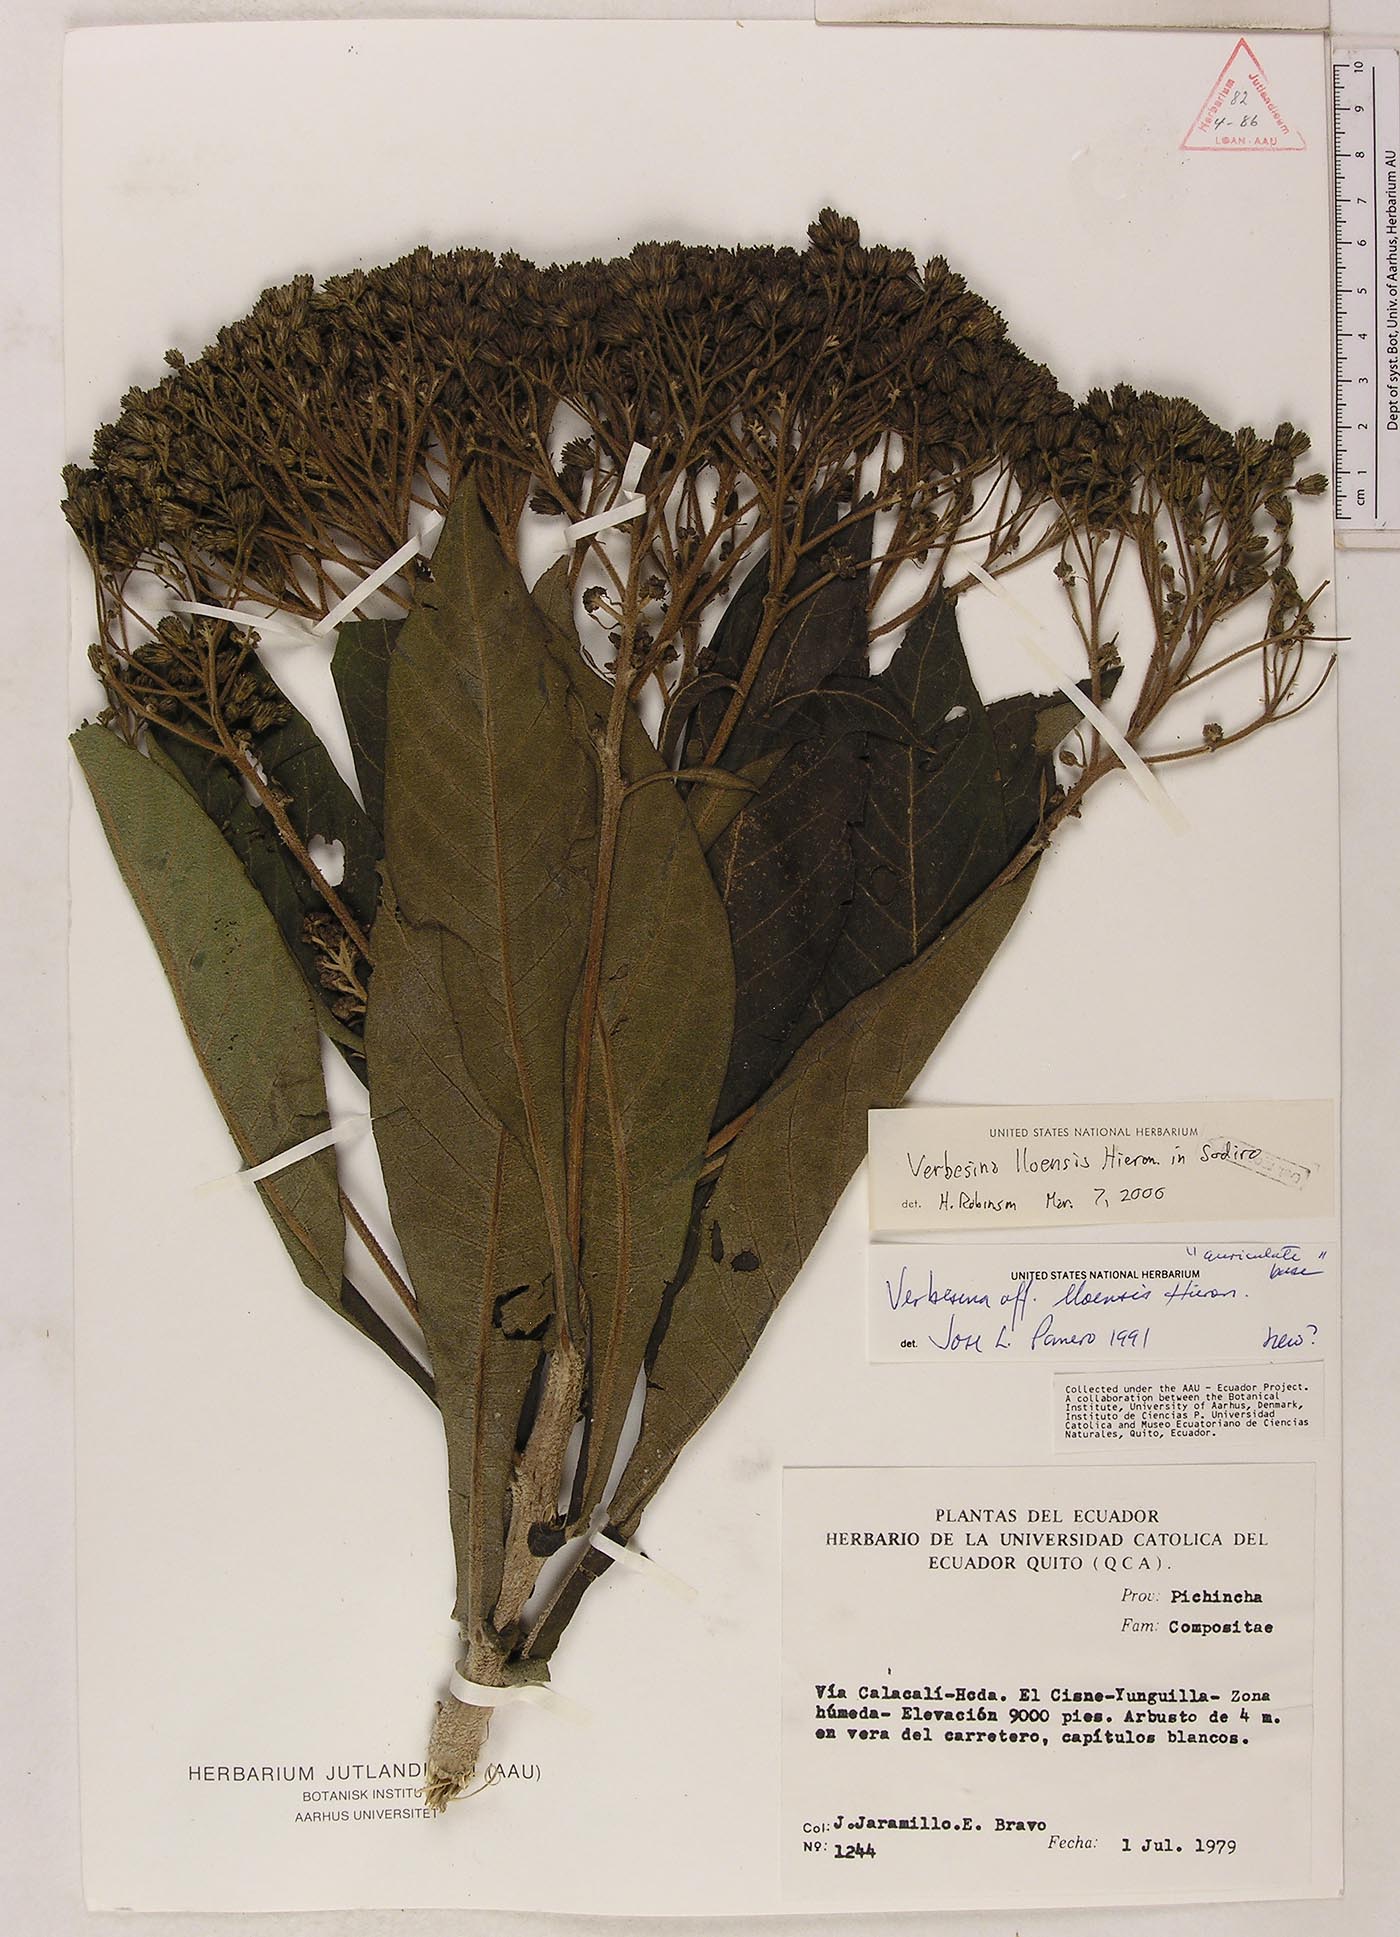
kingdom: Plantae
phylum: Tracheophyta
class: Magnoliopsida
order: Asterales
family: Asteraceae
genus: Verbesina
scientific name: Verbesina lloensis
